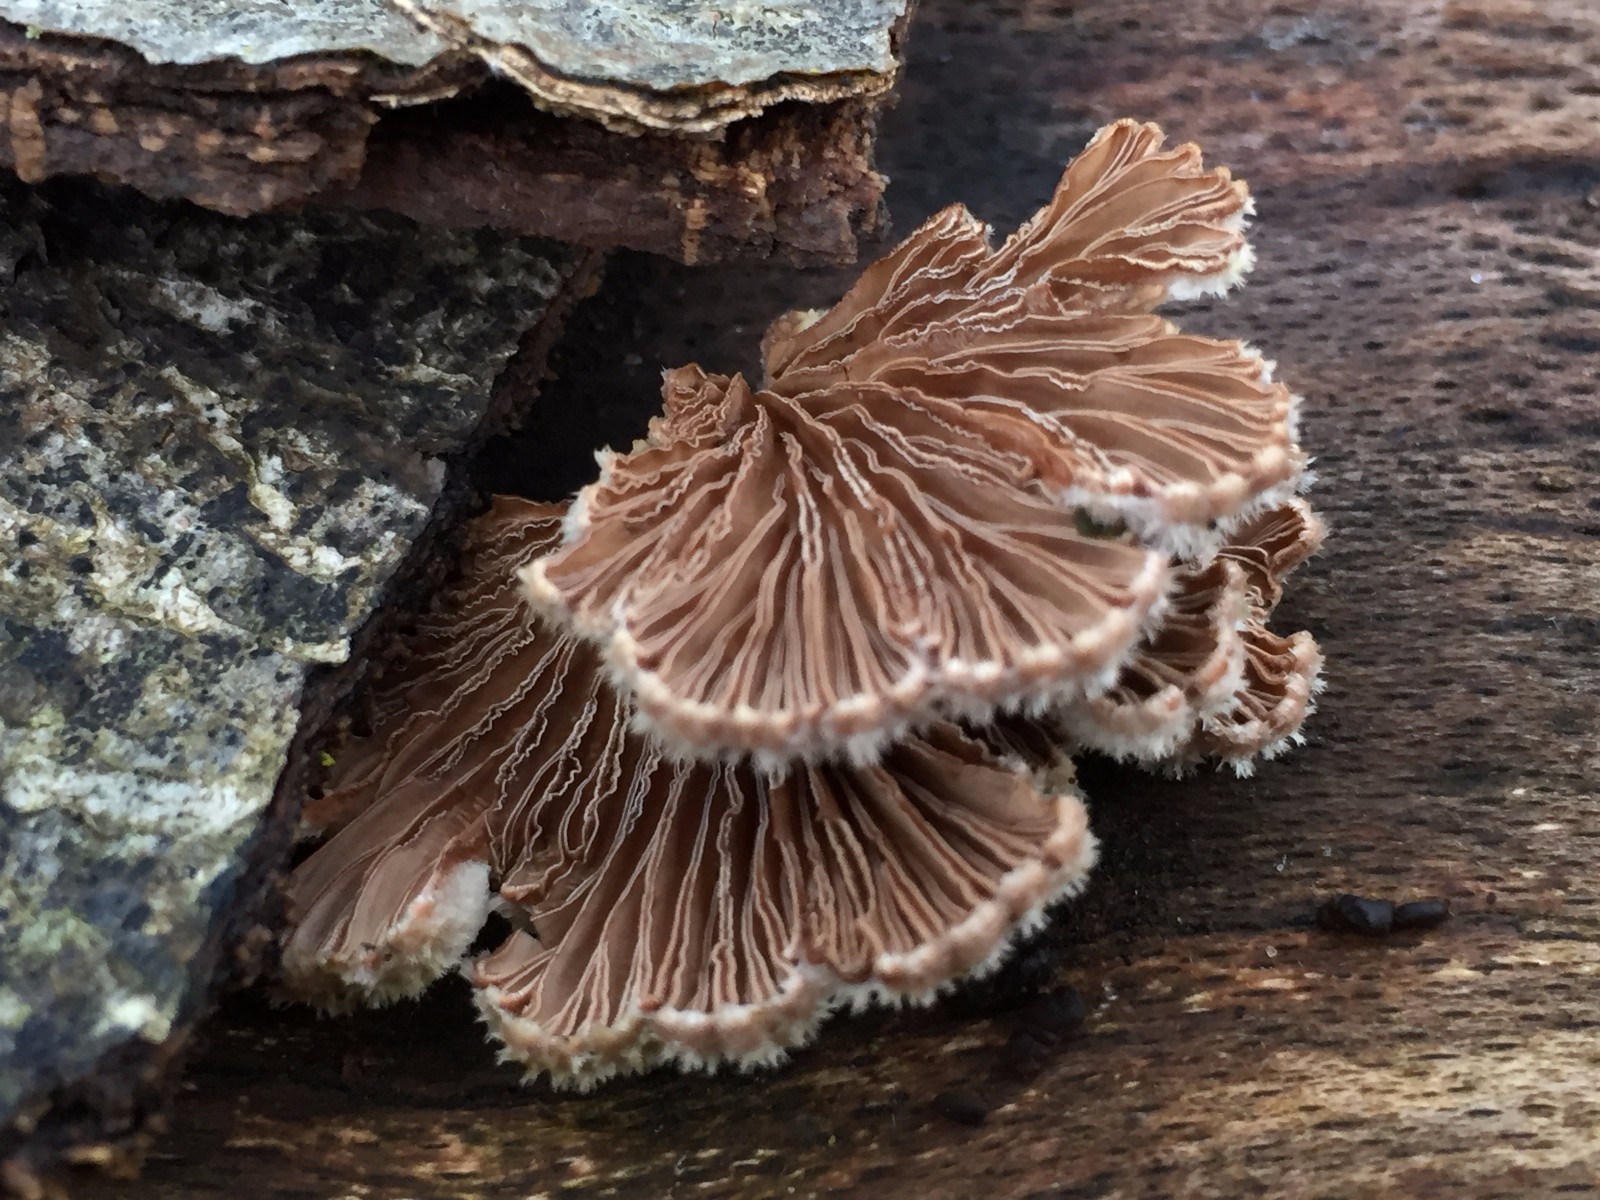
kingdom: Fungi
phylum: Basidiomycota
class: Agaricomycetes
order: Agaricales
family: Schizophyllaceae
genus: Schizophyllum
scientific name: Schizophyllum commune
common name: kløvblad
